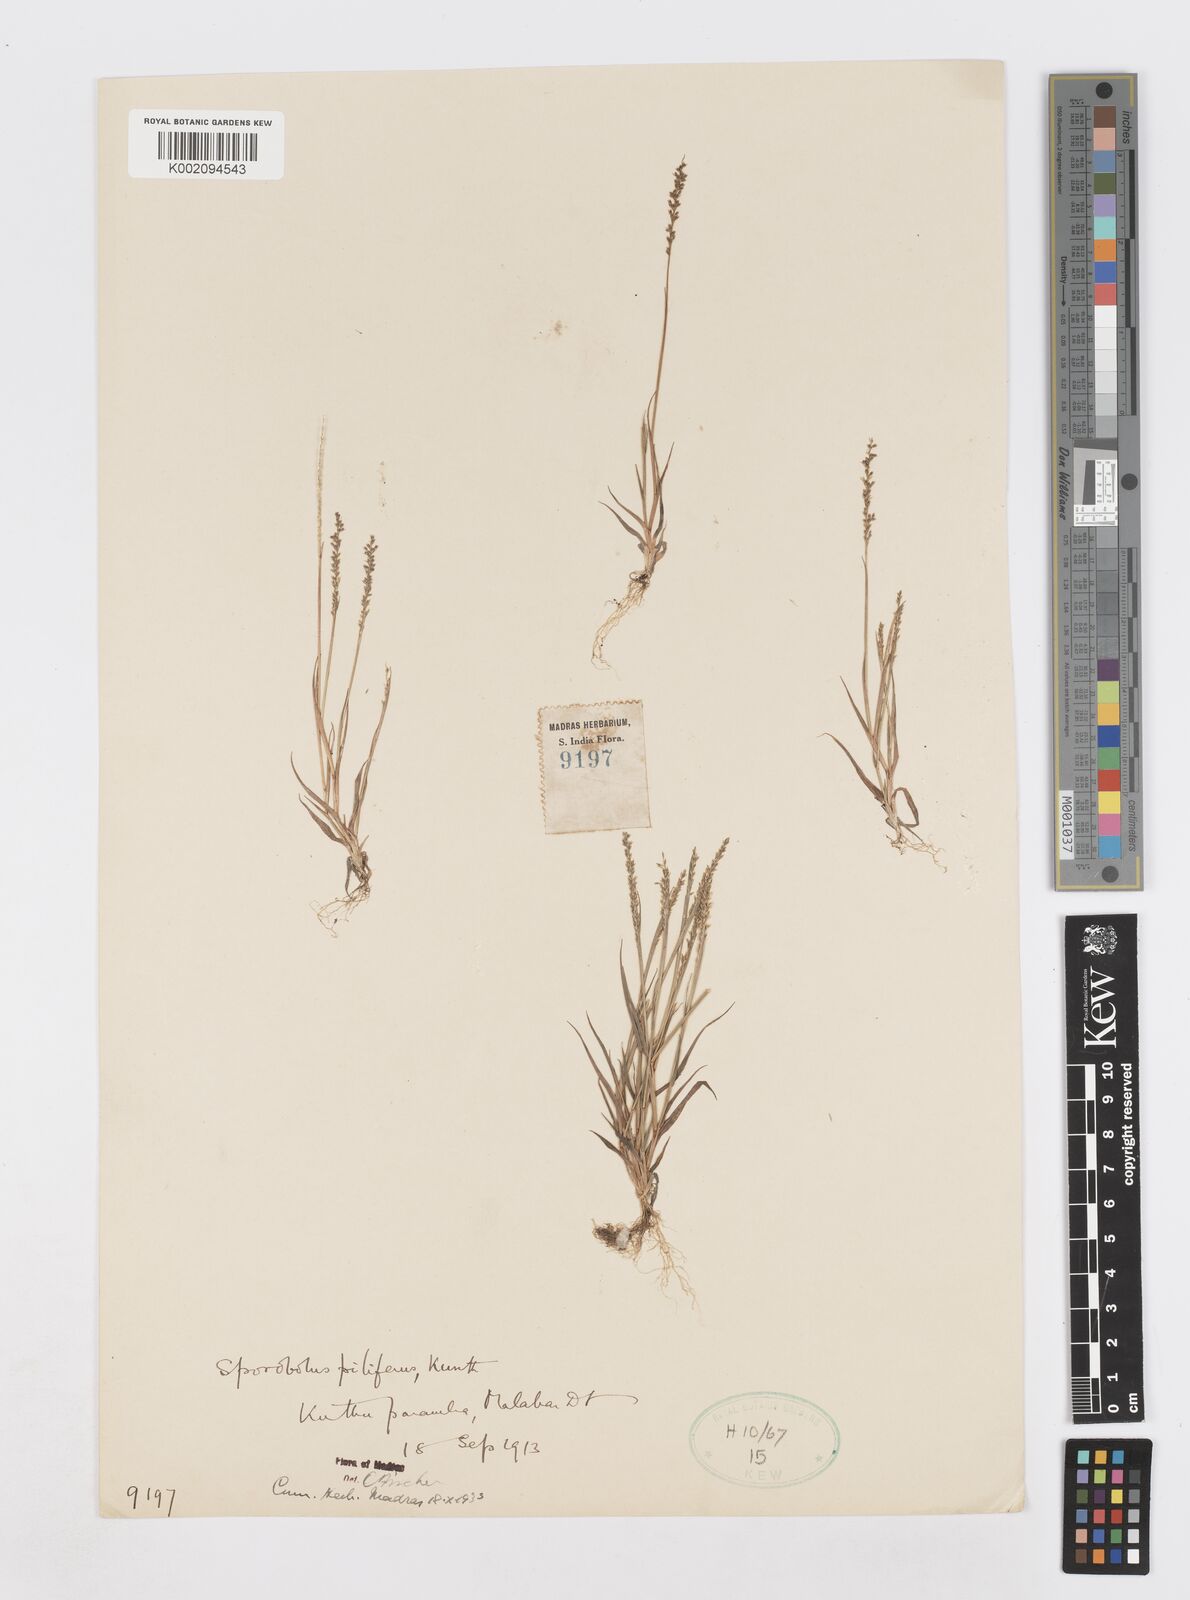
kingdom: Plantae
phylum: Tracheophyta
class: Liliopsida
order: Poales
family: Poaceae
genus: Sporobolus
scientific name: Sporobolus pilifer
